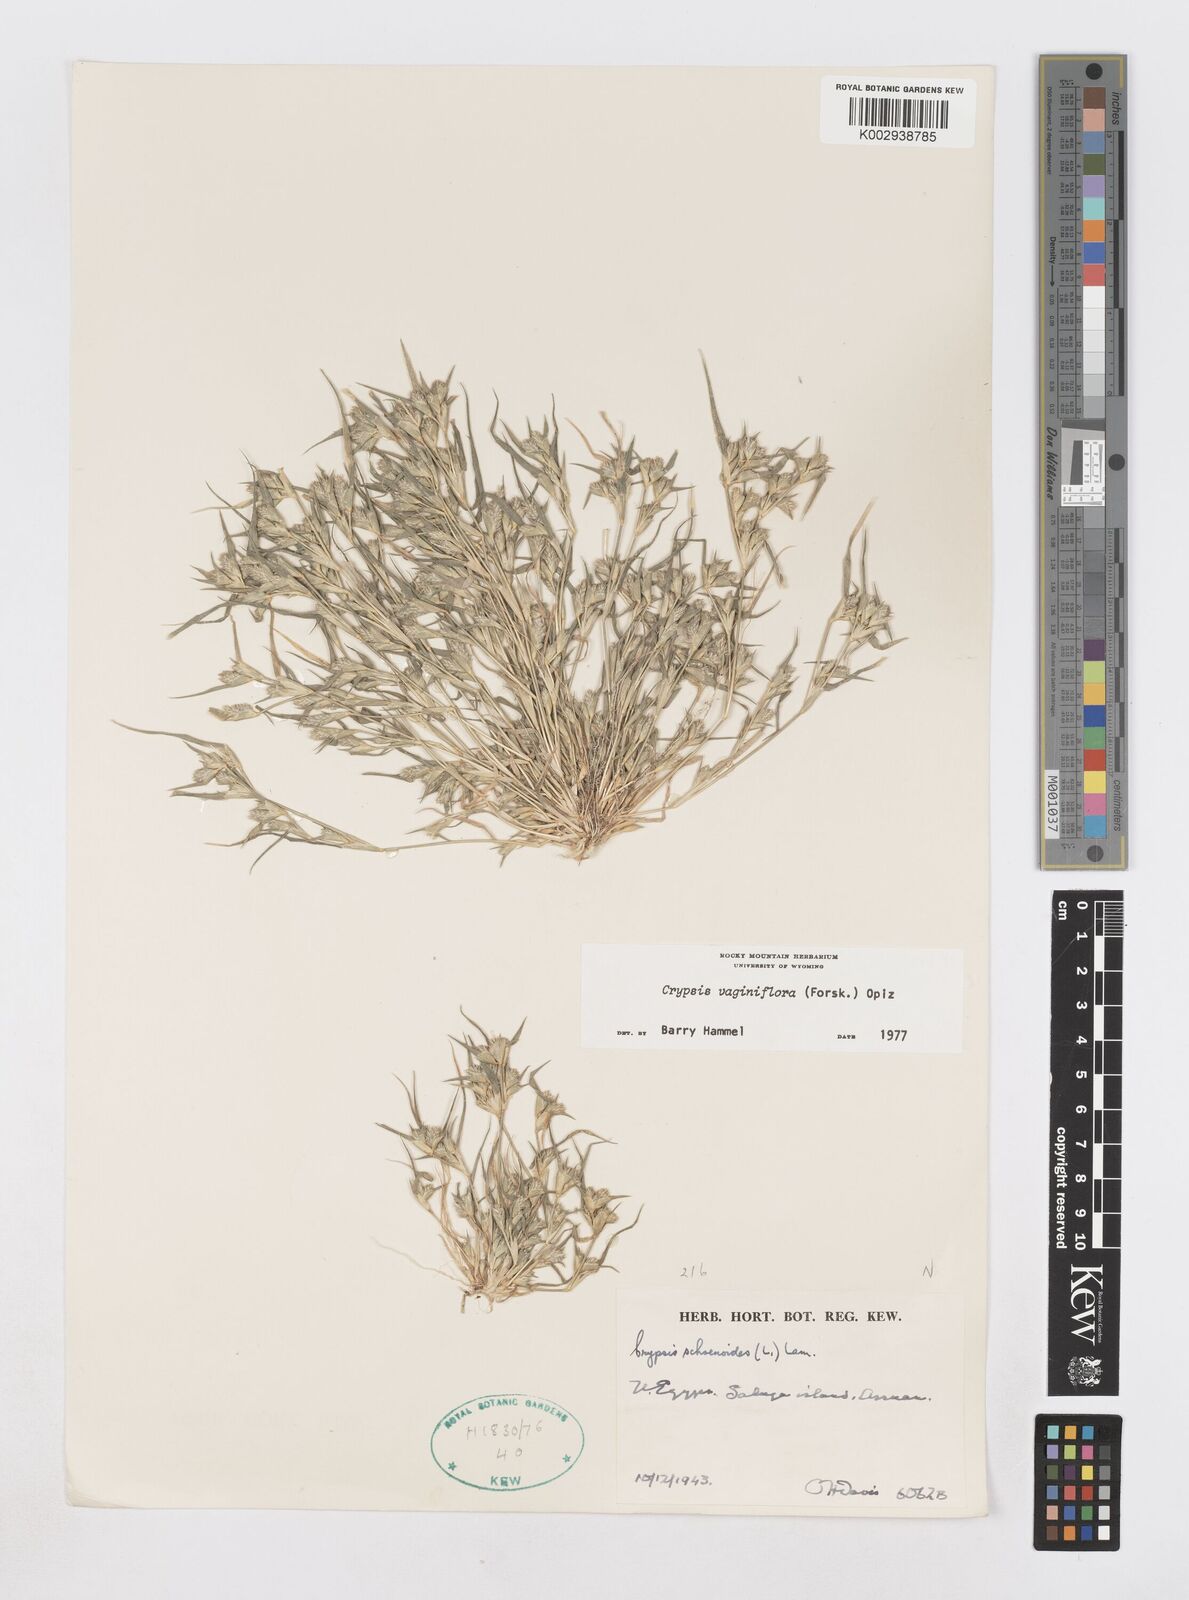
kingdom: Plantae
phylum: Tracheophyta
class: Liliopsida
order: Poales
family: Poaceae
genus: Sporobolus
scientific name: Sporobolus niliacus
